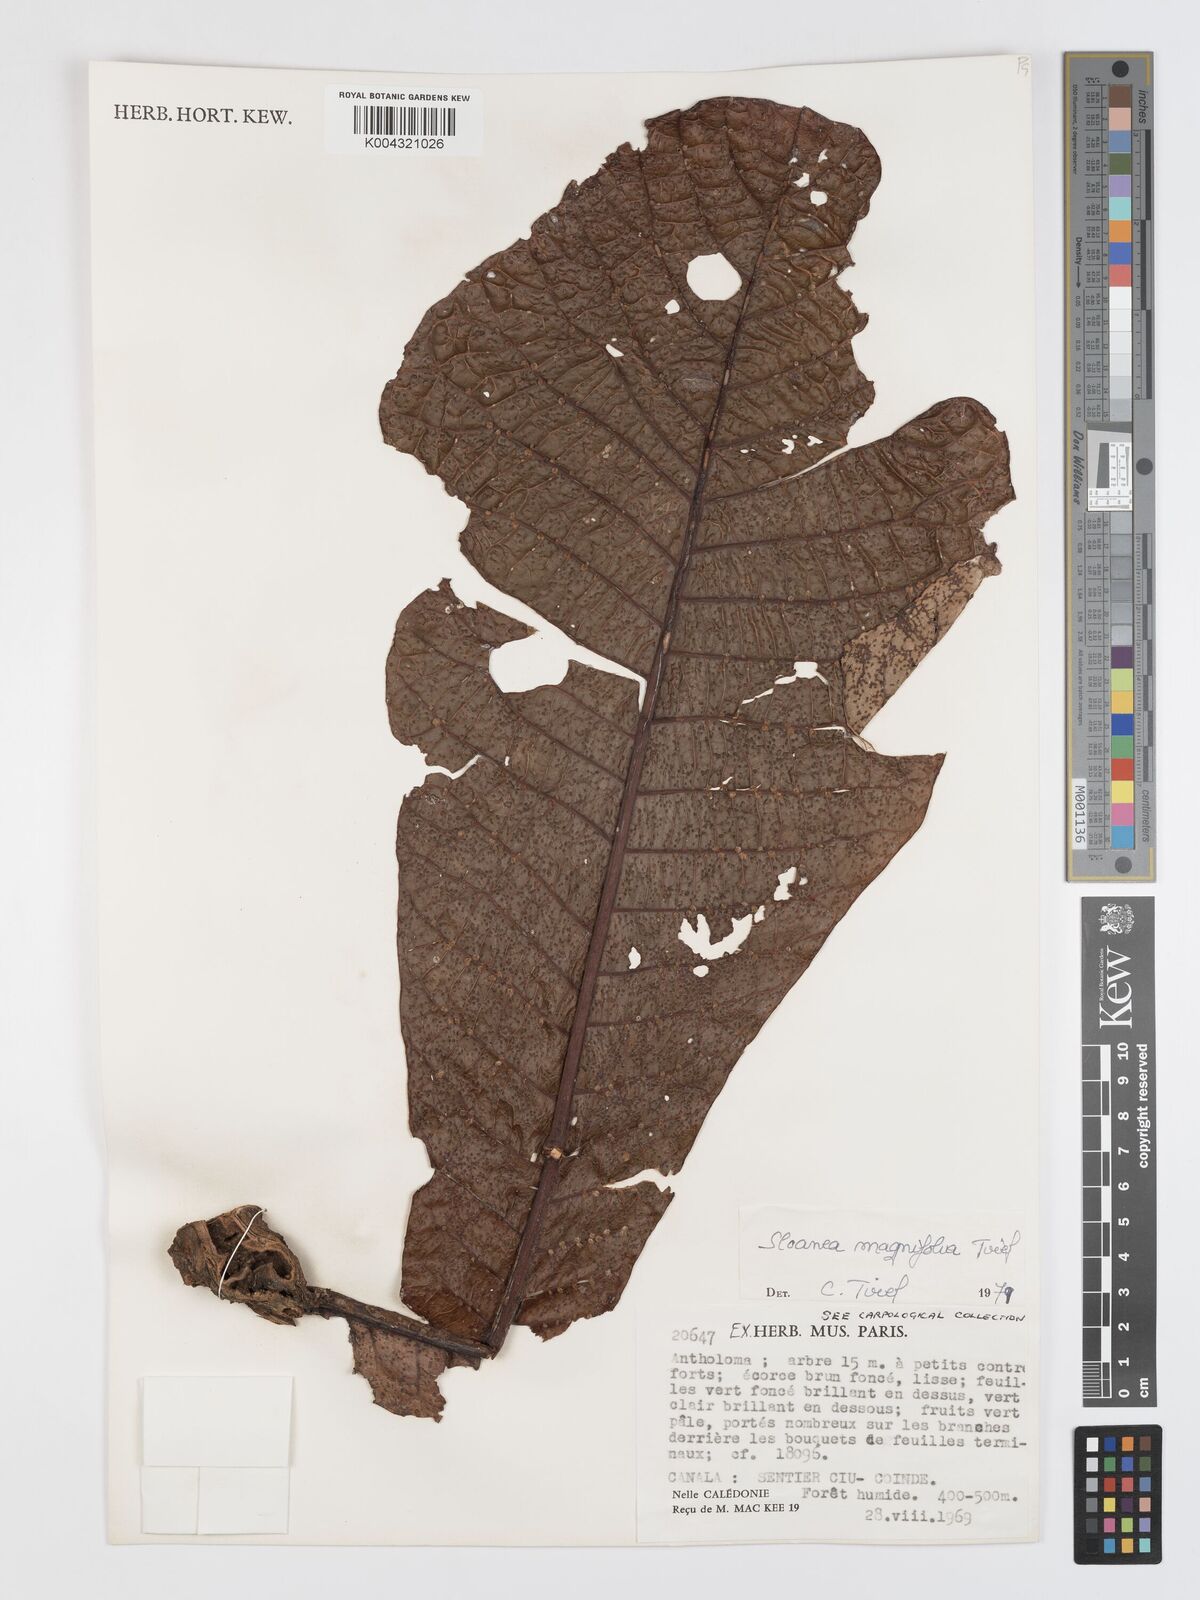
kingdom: Plantae
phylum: Tracheophyta
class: Magnoliopsida
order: Oxalidales
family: Elaeocarpaceae
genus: Sloanea
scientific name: Sloanea magnifolia
